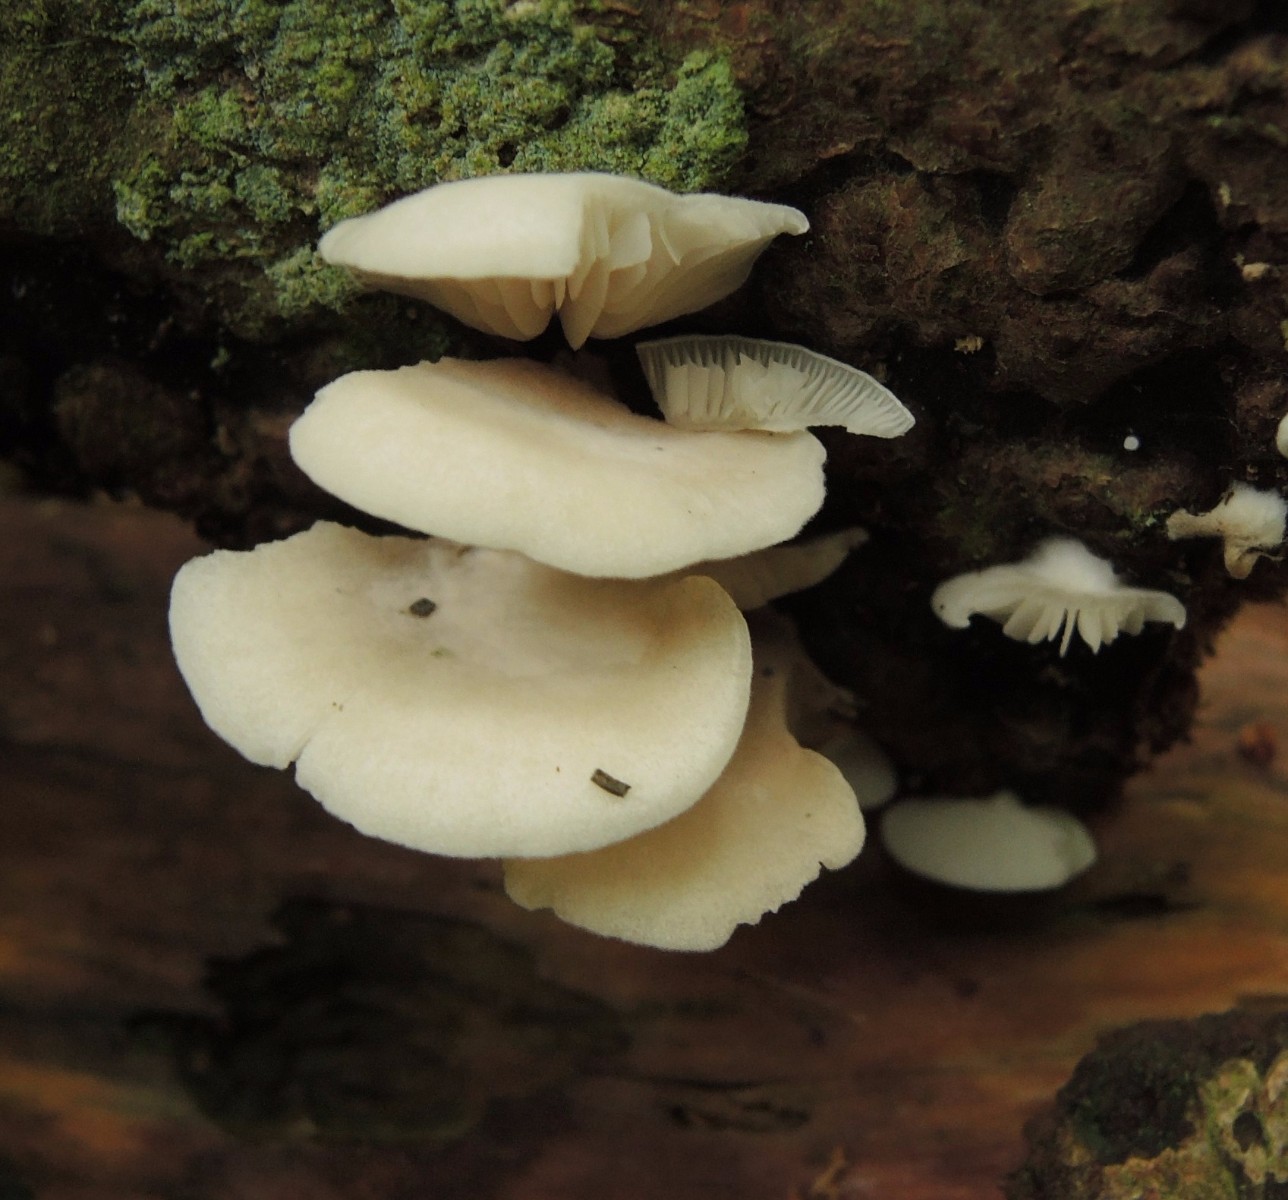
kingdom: Fungi
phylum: Basidiomycota
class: Agaricomycetes
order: Agaricales
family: Entolomataceae
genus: Clitopilus
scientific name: Clitopilus hobsonii
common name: Miller's oysterling
